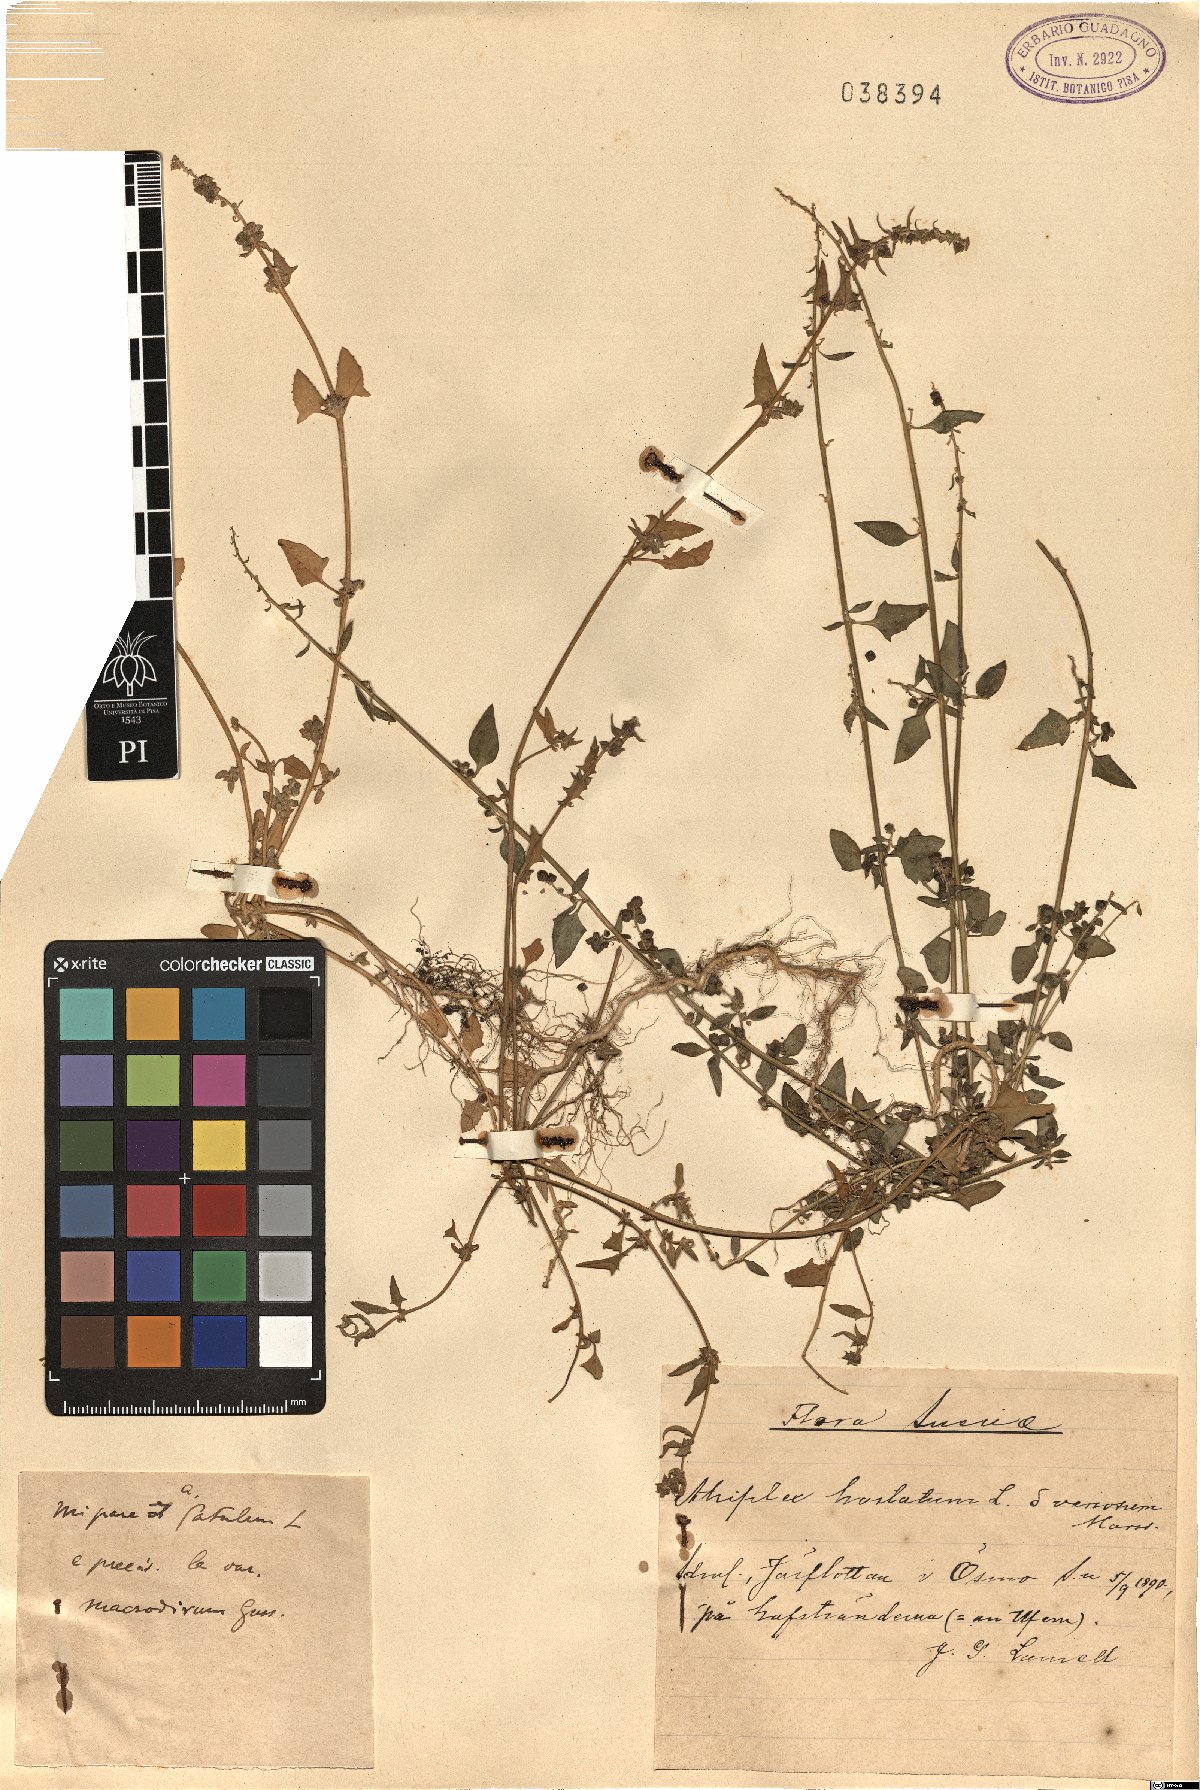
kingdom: Plantae
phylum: Tracheophyta
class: Magnoliopsida
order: Caryophyllales
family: Amaranthaceae
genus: Atriplex
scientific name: Atriplex calotheca
